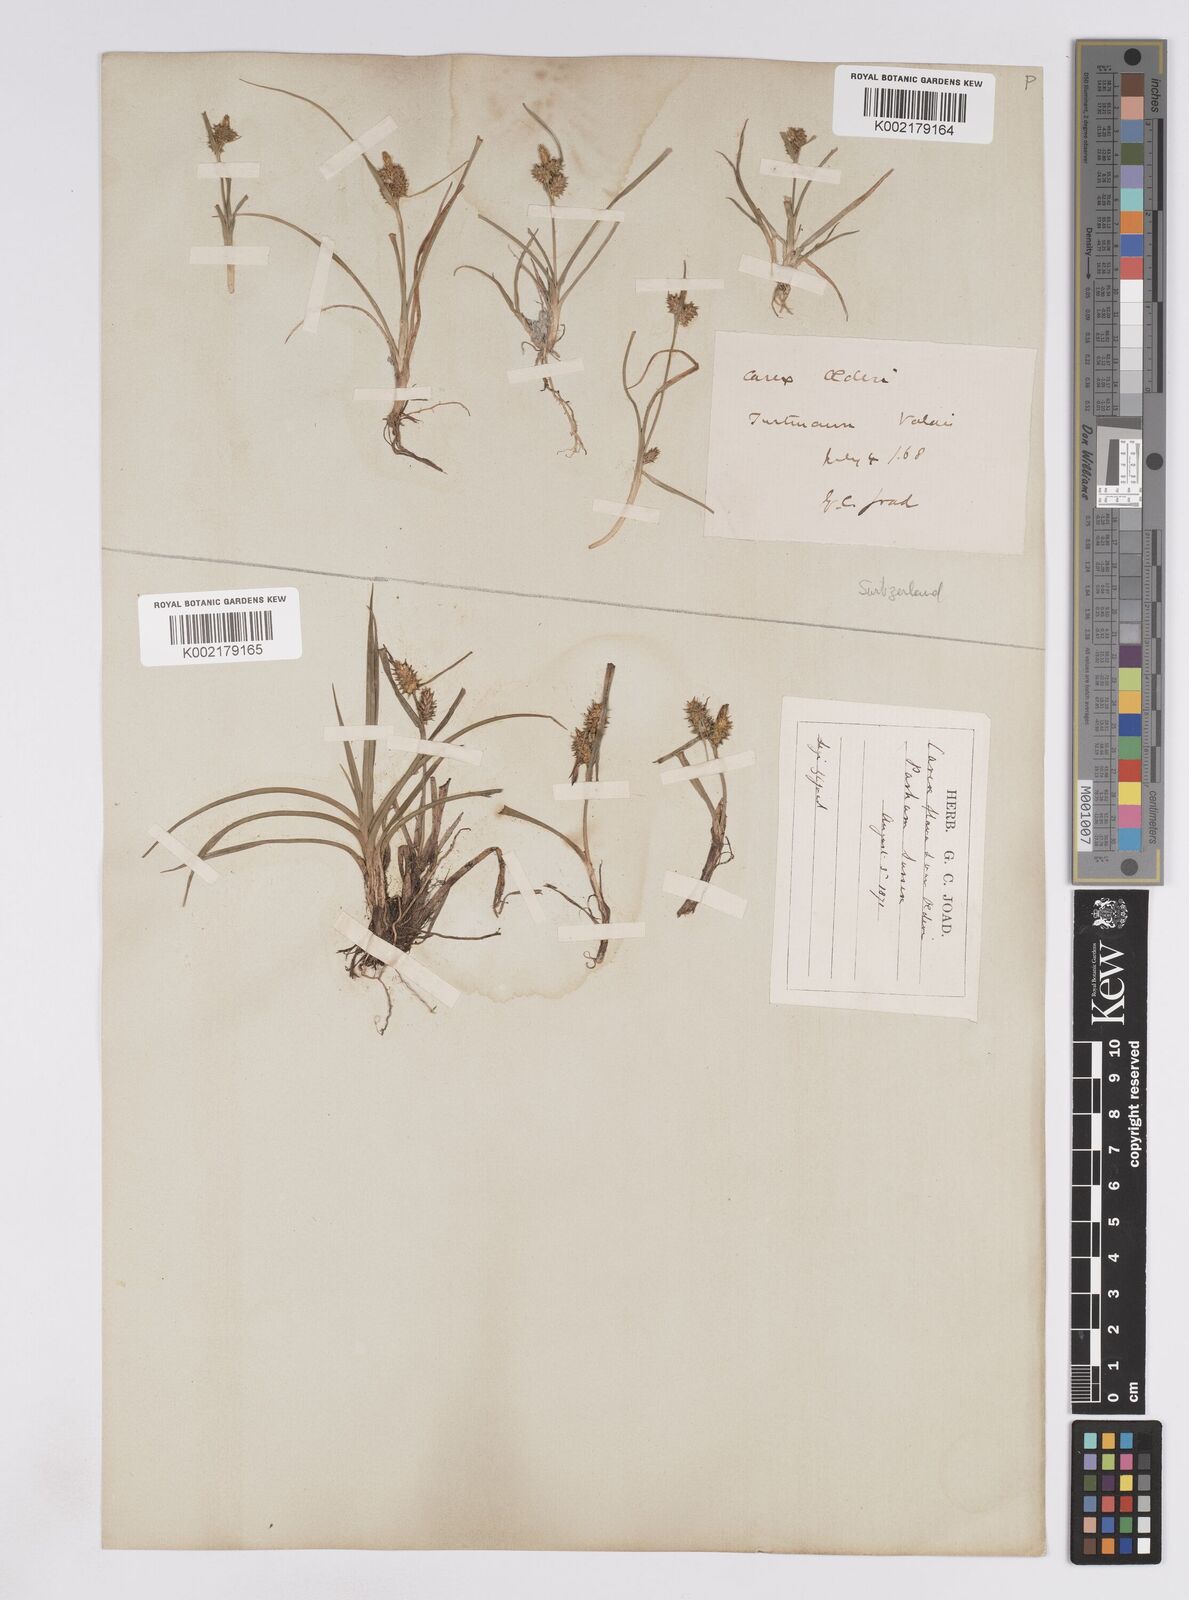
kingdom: Plantae
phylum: Tracheophyta
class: Liliopsida
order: Poales
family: Cyperaceae
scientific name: Cyperaceae
